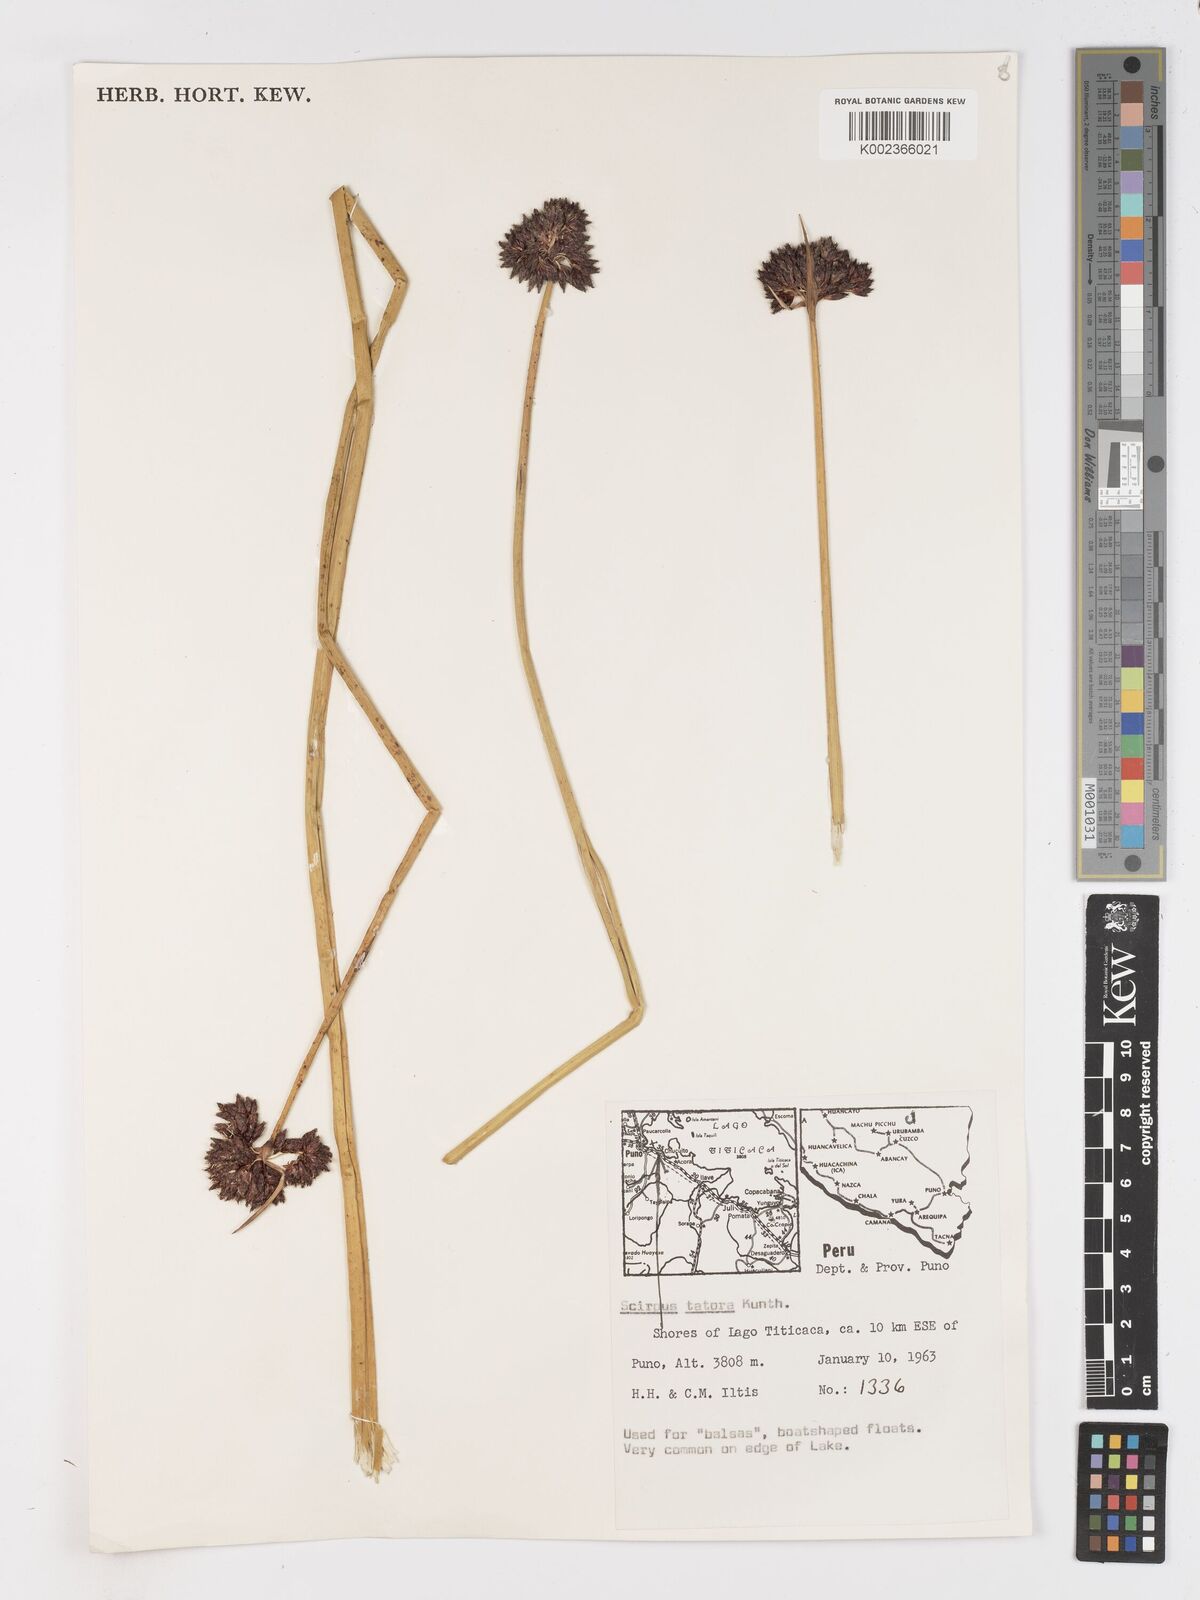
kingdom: Plantae
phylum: Tracheophyta
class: Liliopsida
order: Poales
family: Cyperaceae
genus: Schoenoplectus
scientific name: Schoenoplectus californicus
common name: California bulrush
